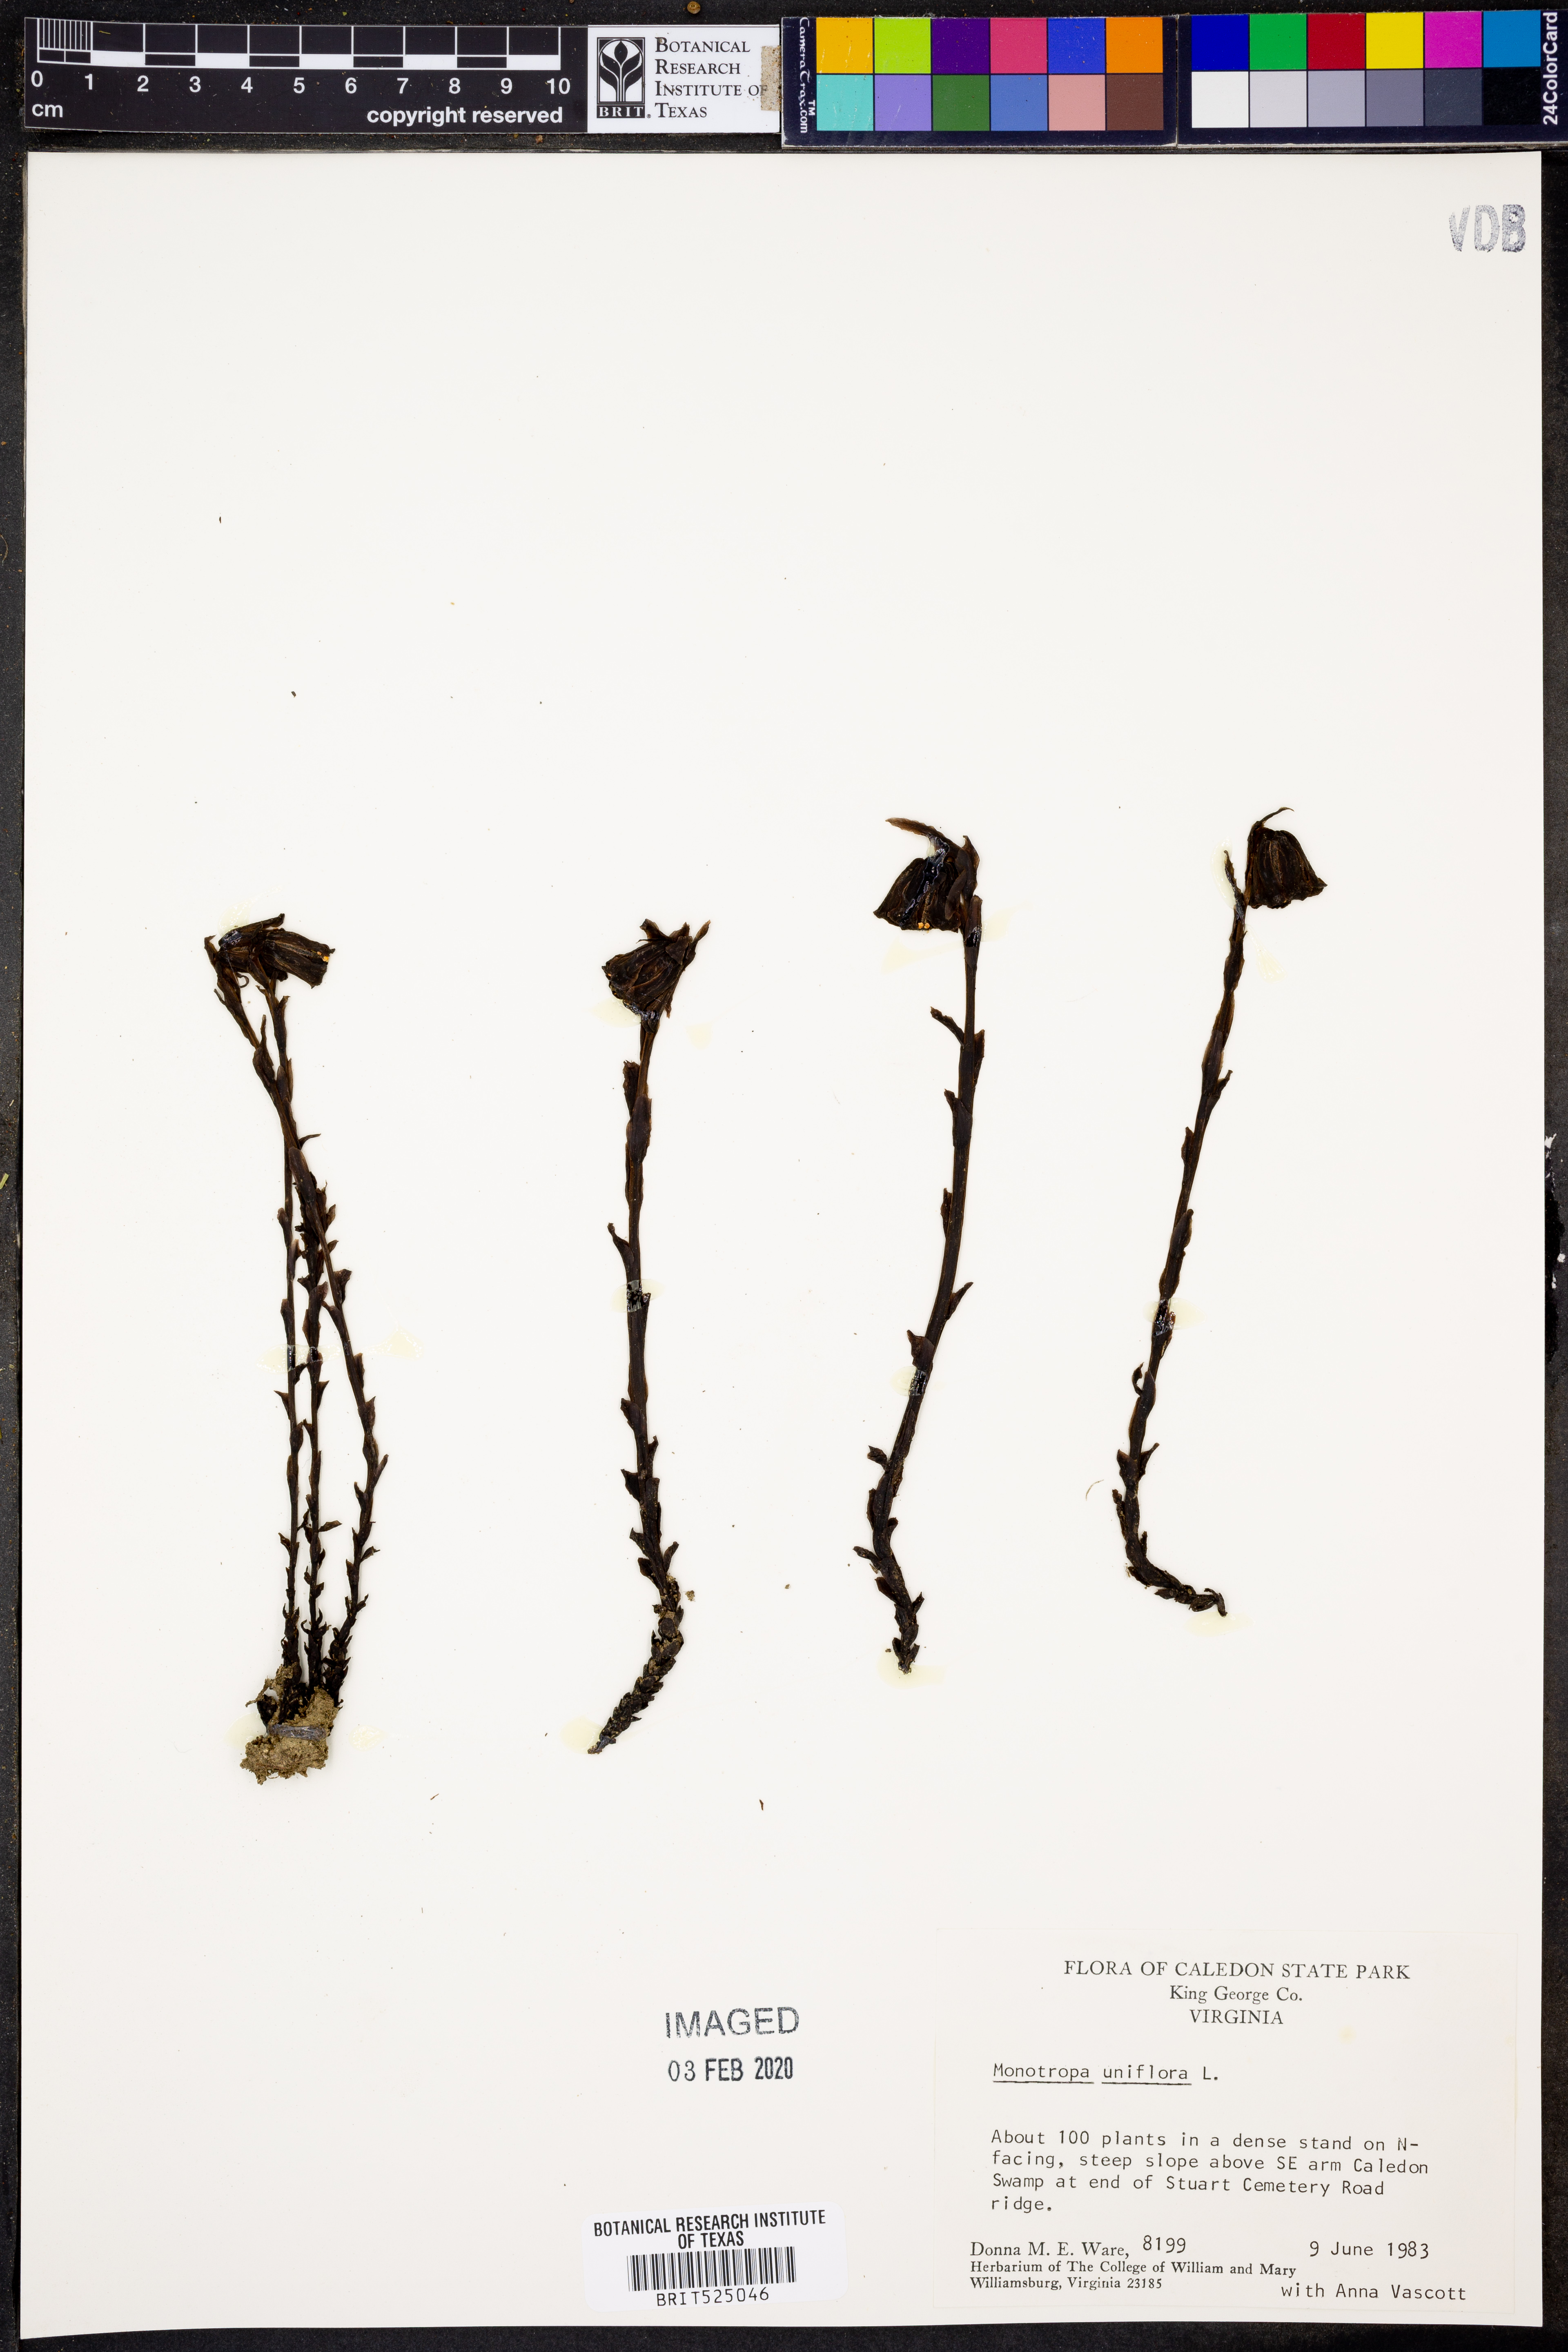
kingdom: Plantae
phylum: Tracheophyta
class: Magnoliopsida
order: Ericales
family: Ericaceae
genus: Monotropa
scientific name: Monotropa uniflora
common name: Convulsion root
